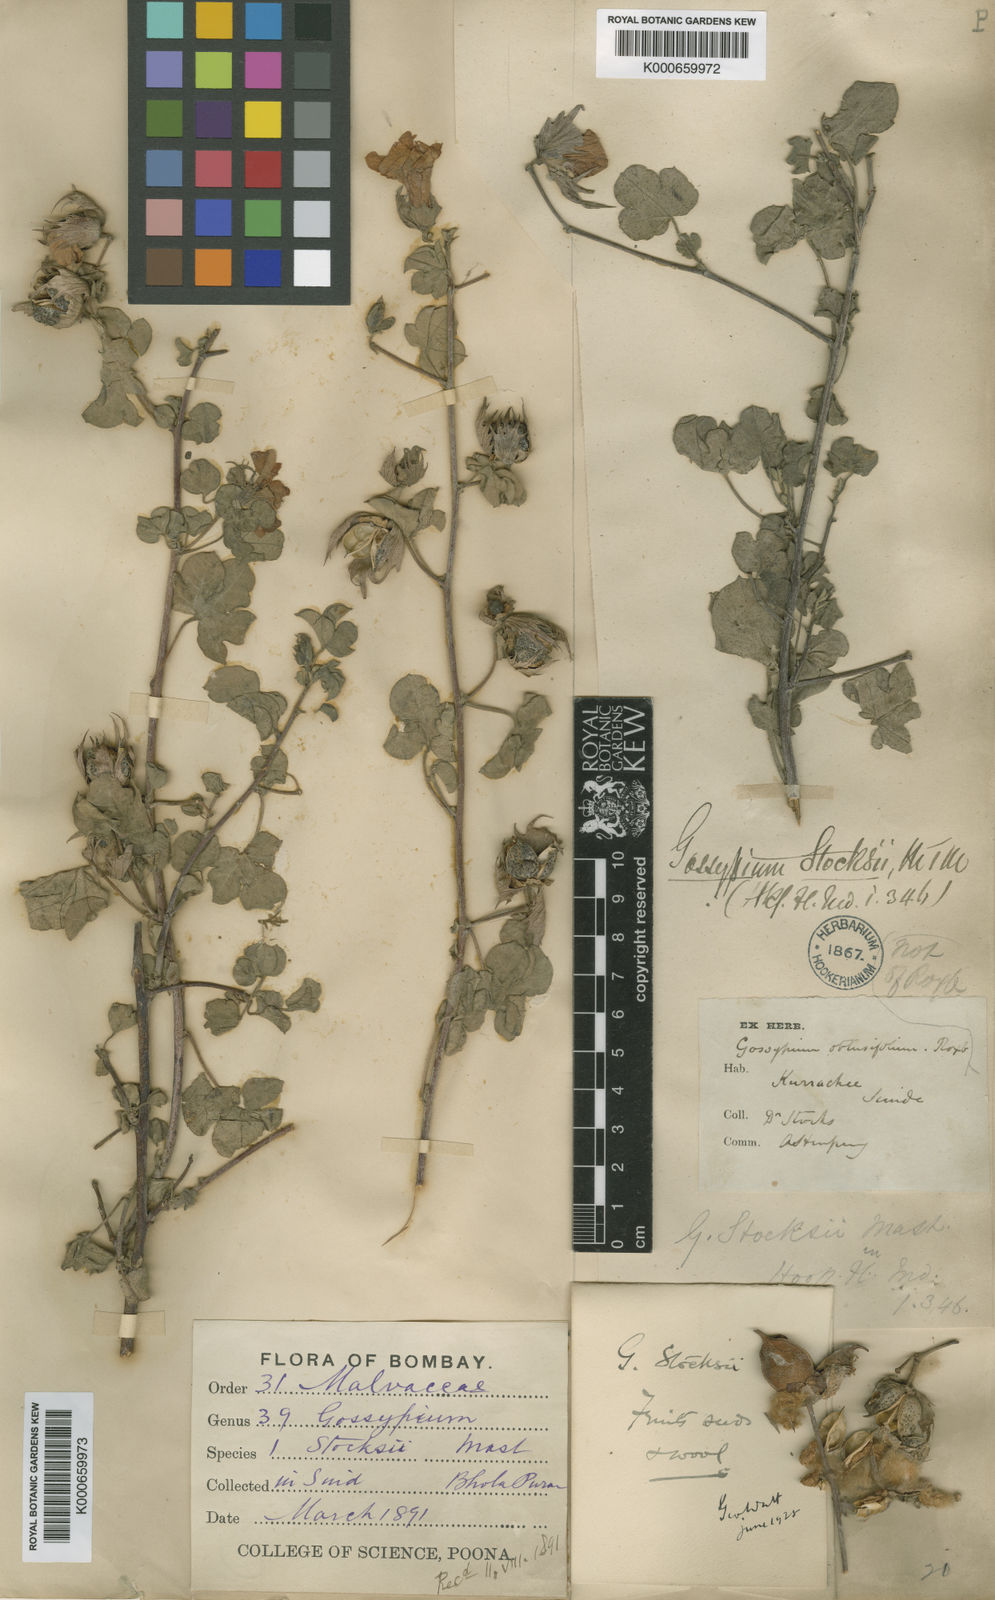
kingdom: Plantae
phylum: Tracheophyta
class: Magnoliopsida
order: Malvales
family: Malvaceae
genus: Gossypium
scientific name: Gossypium stocksii
